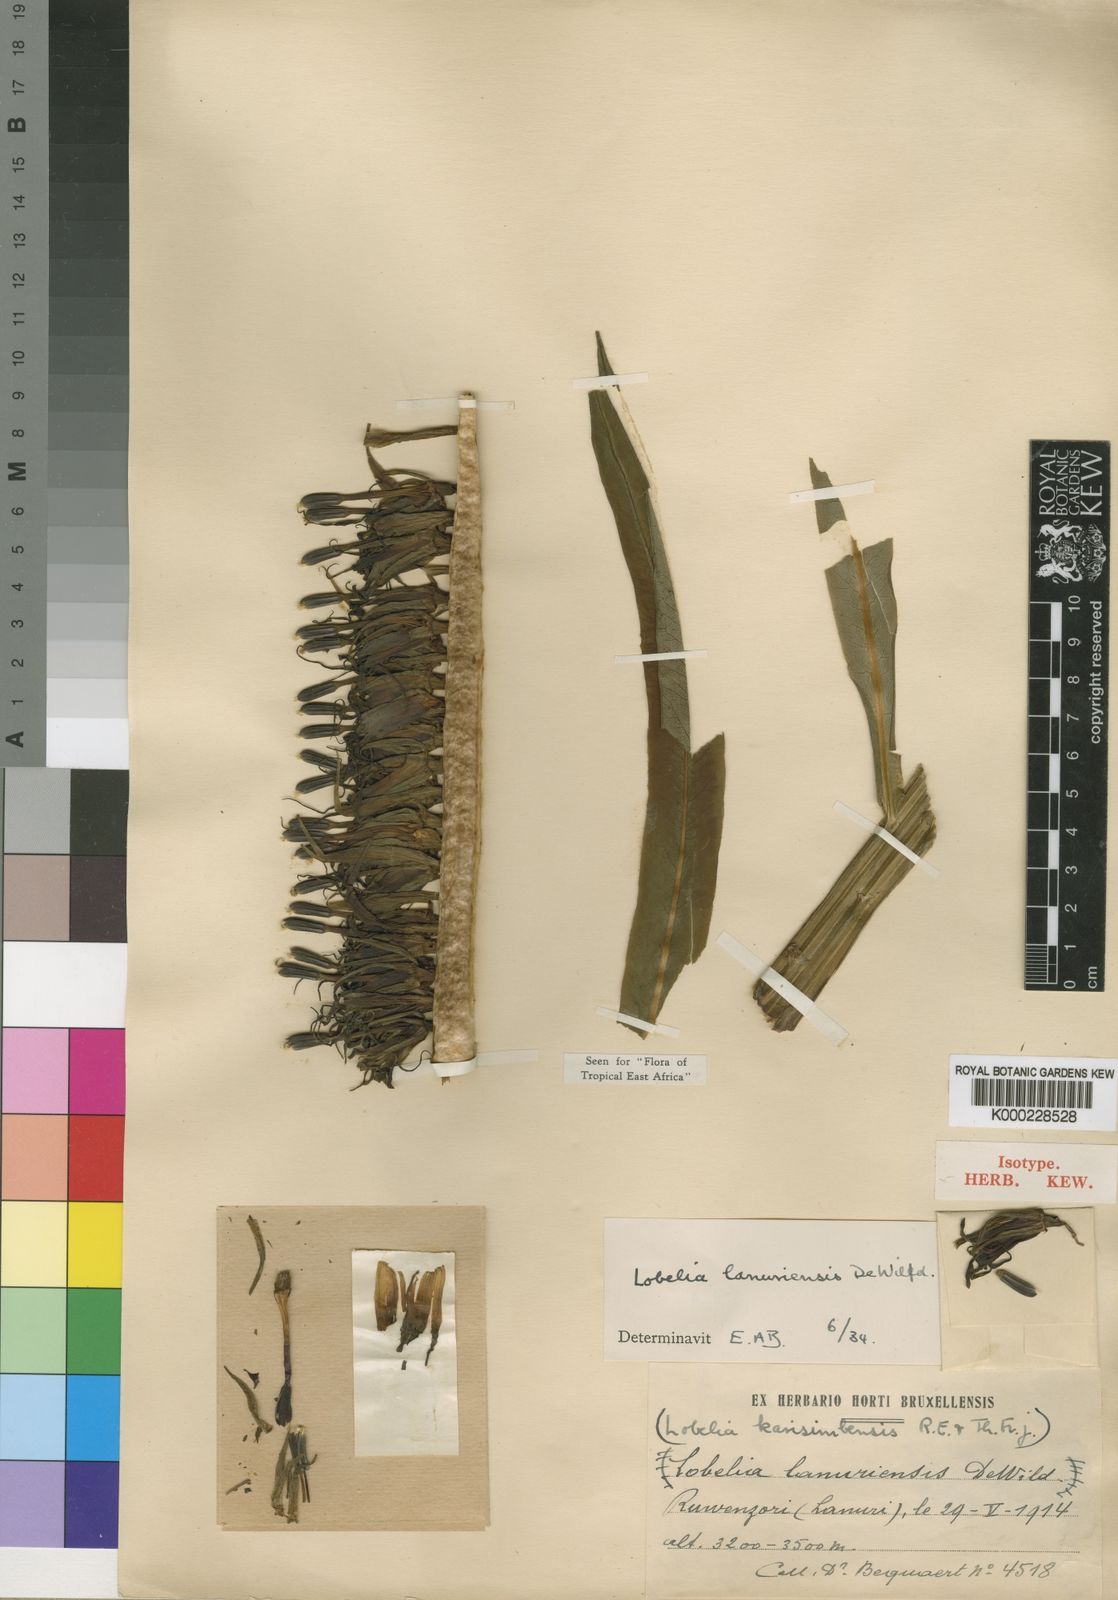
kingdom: Plantae
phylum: Tracheophyta
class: Magnoliopsida
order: Asterales
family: Campanulaceae
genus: Lobelia
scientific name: Lobelia stuhlmannii
